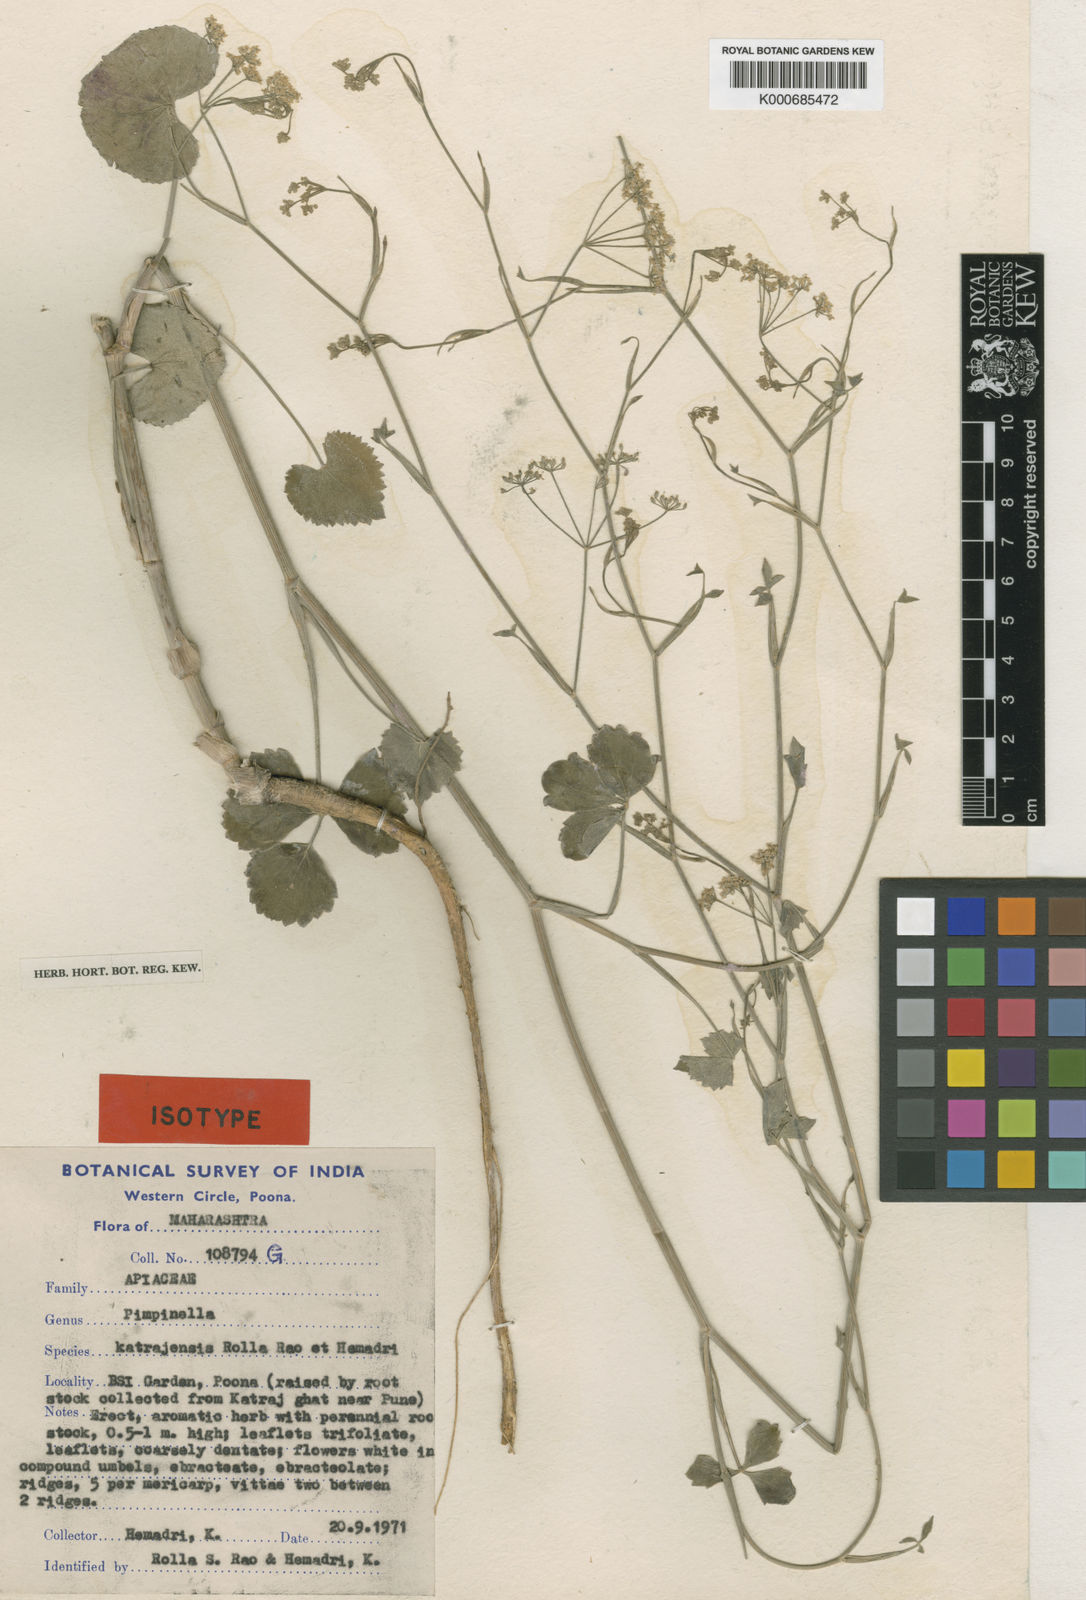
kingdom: Plantae
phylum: Tracheophyta
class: Magnoliopsida
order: Apiales
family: Apiaceae
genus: Pimpinella
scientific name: Pimpinella wallichiana
